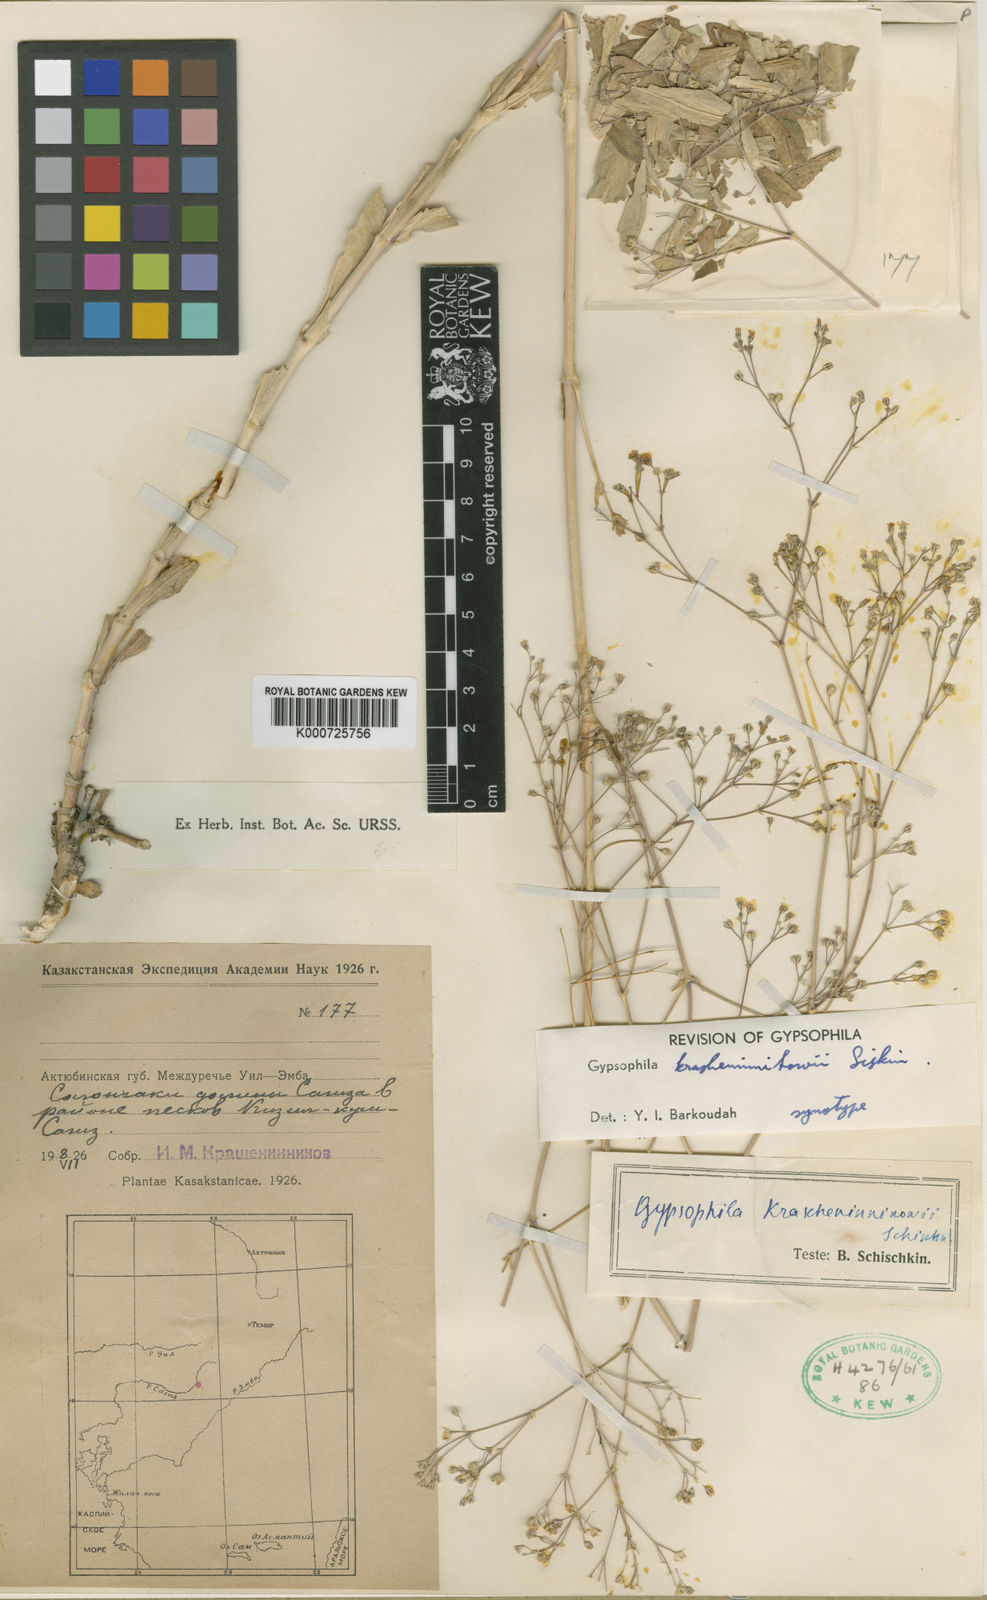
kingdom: Plantae
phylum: Tracheophyta
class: Magnoliopsida
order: Caryophyllales
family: Caryophyllaceae
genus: Gypsophila
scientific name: Gypsophila krascheninnikovii
